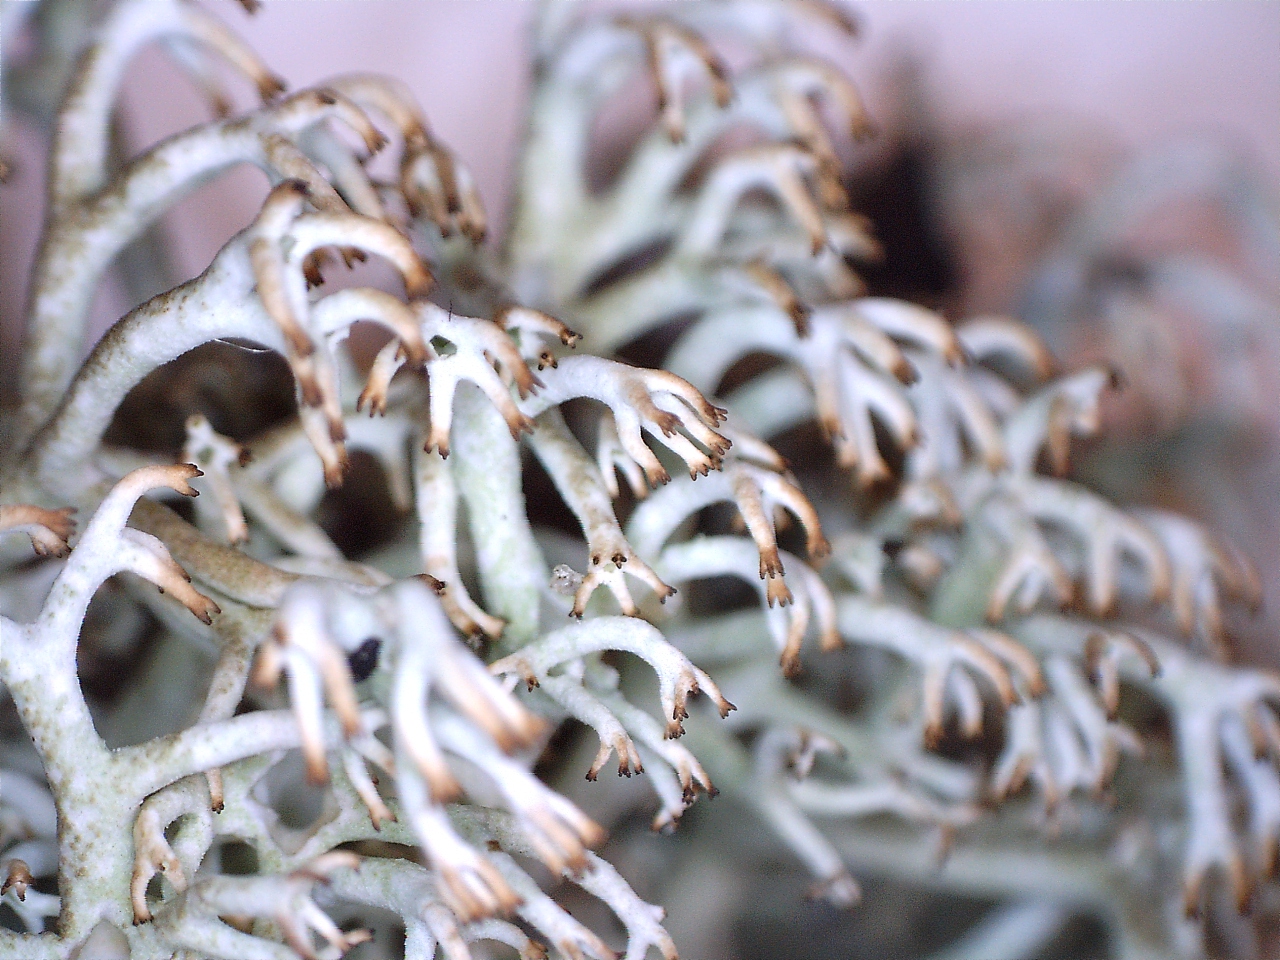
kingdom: Fungi
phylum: Ascomycota
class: Lecanoromycetes
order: Lecanorales
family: Cladoniaceae
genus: Cladonia
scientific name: Cladonia ciliata
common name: spinkel rensdyrlav
